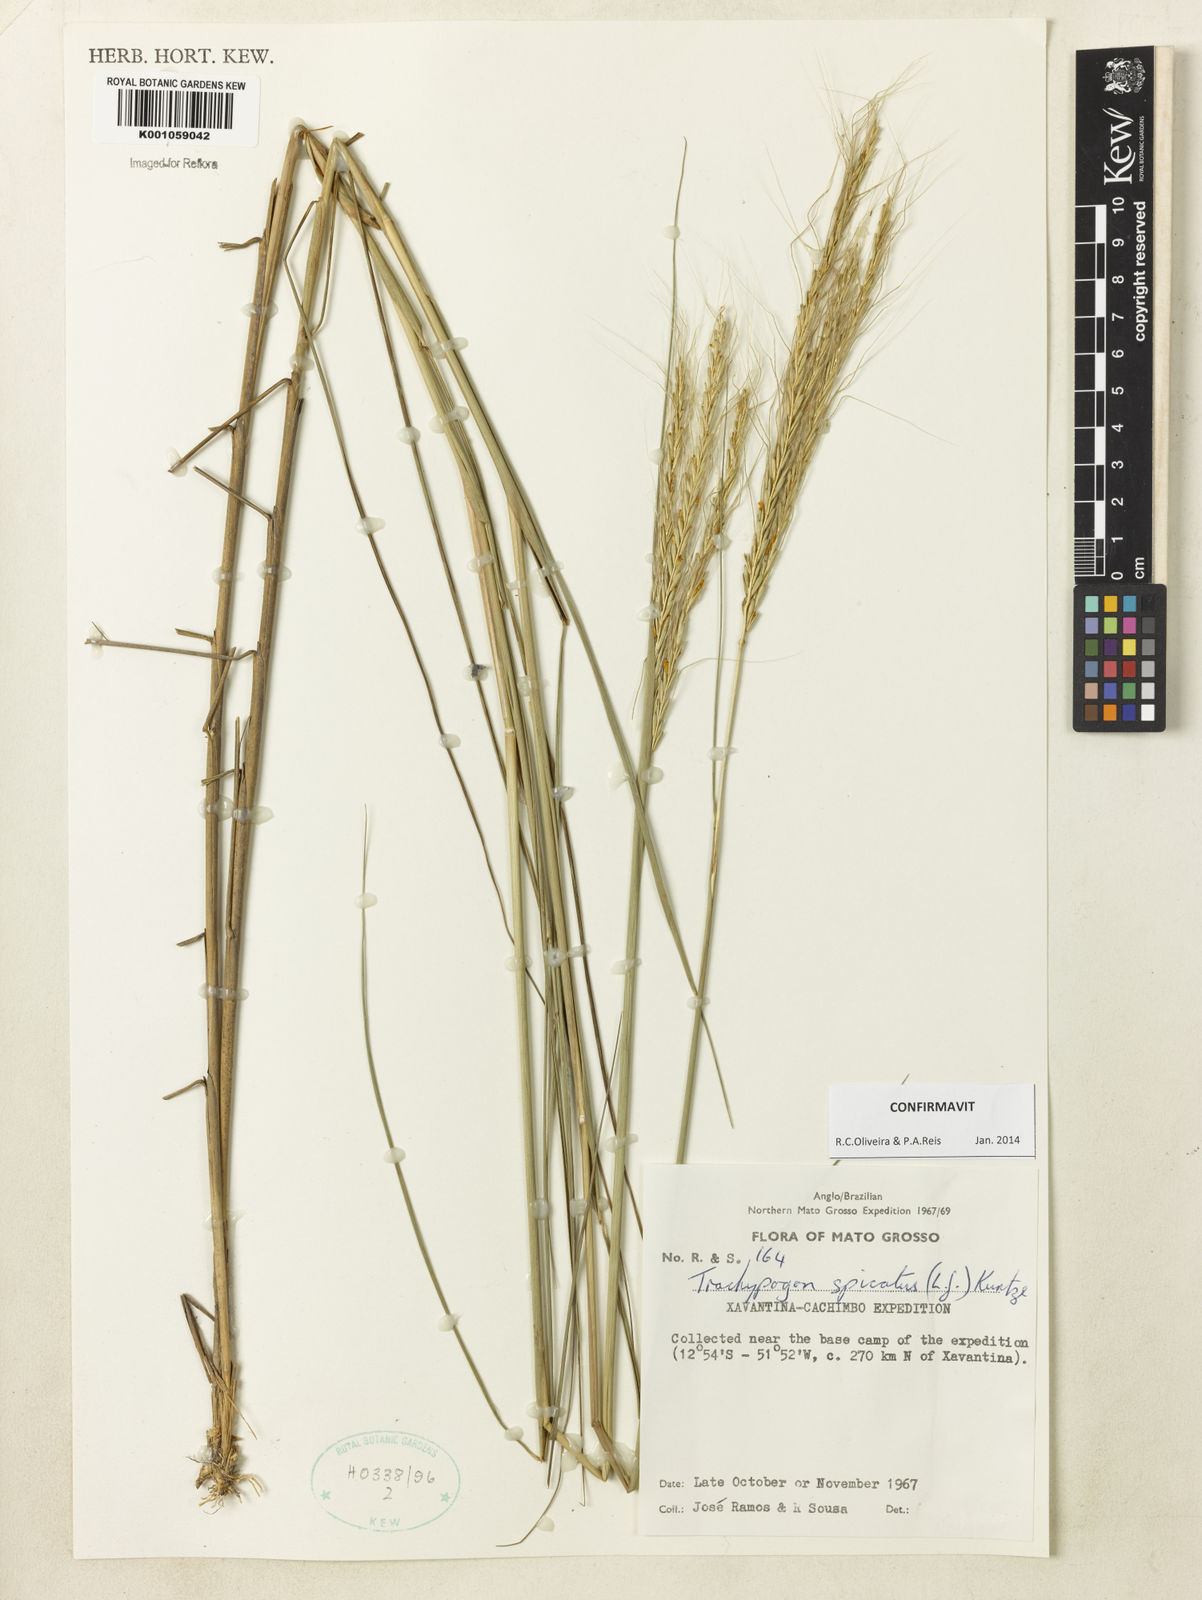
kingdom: Plantae
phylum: Tracheophyta
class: Liliopsida
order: Poales
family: Poaceae
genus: Trachypogon
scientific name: Trachypogon spicatus
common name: Crinkle-awn
